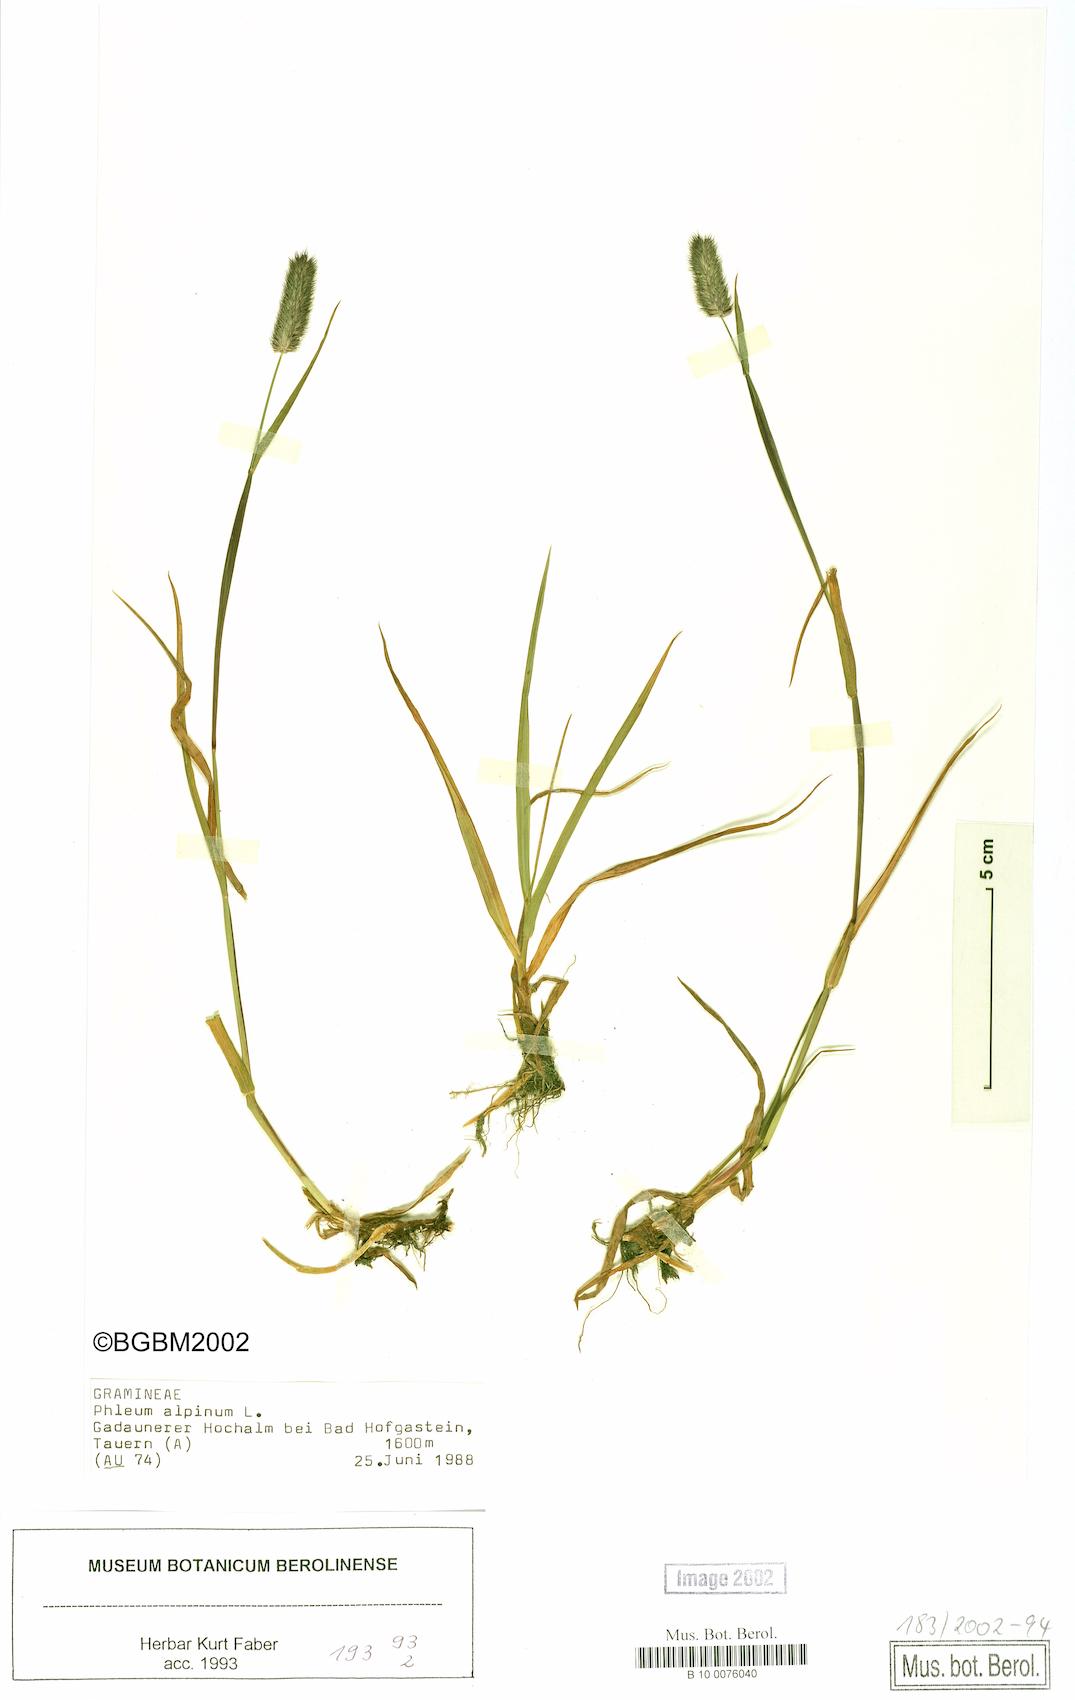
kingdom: Plantae
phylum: Tracheophyta
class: Liliopsida
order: Poales
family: Poaceae
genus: Phleum
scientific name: Phleum alpinum
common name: Alpine cat's-tail
